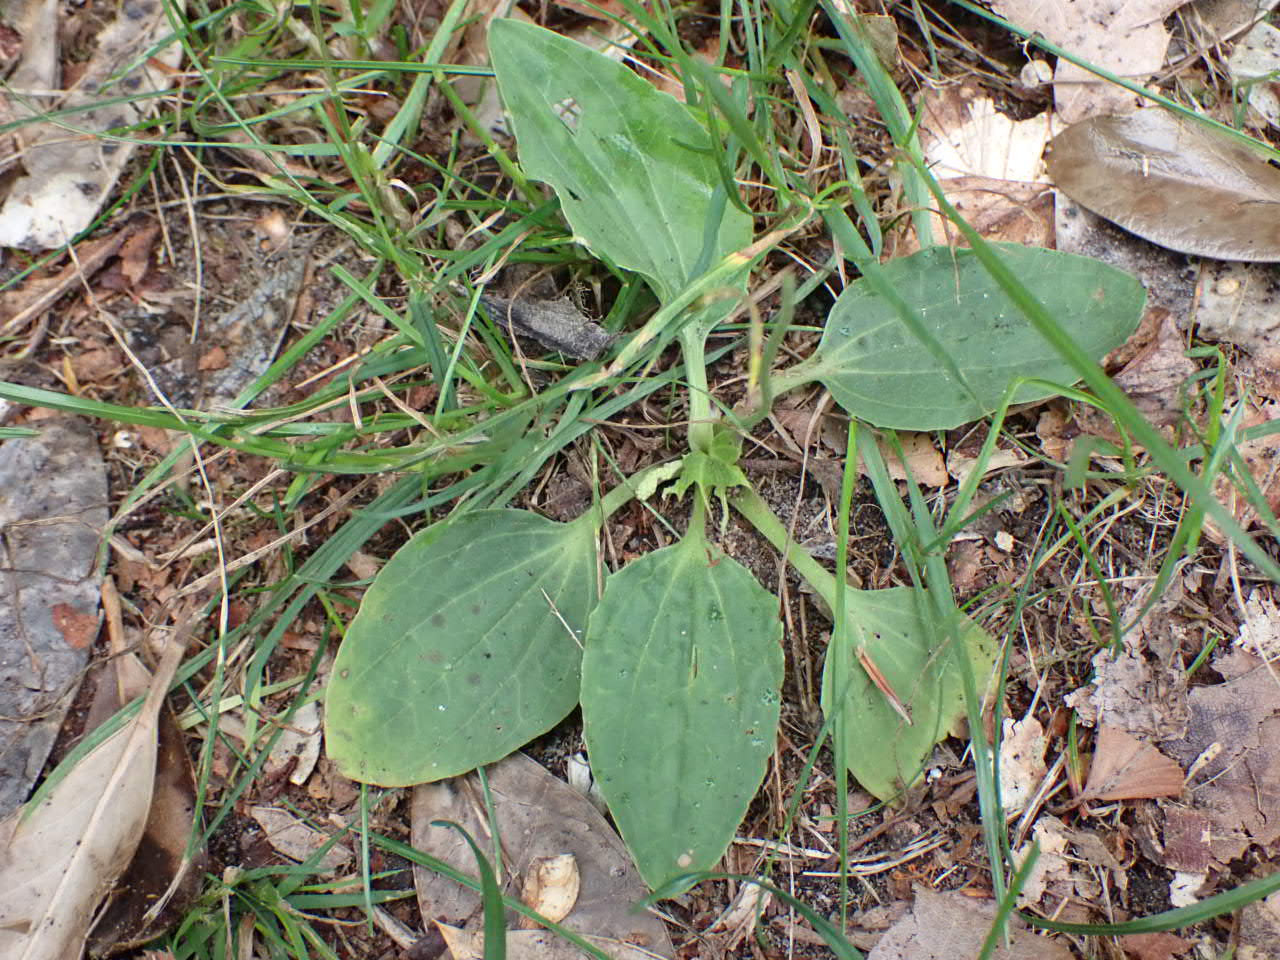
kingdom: Plantae
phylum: Tracheophyta
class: Magnoliopsida
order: Lamiales
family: Plantaginaceae
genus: Plantago
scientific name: Plantago major
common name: Glat vejbred
